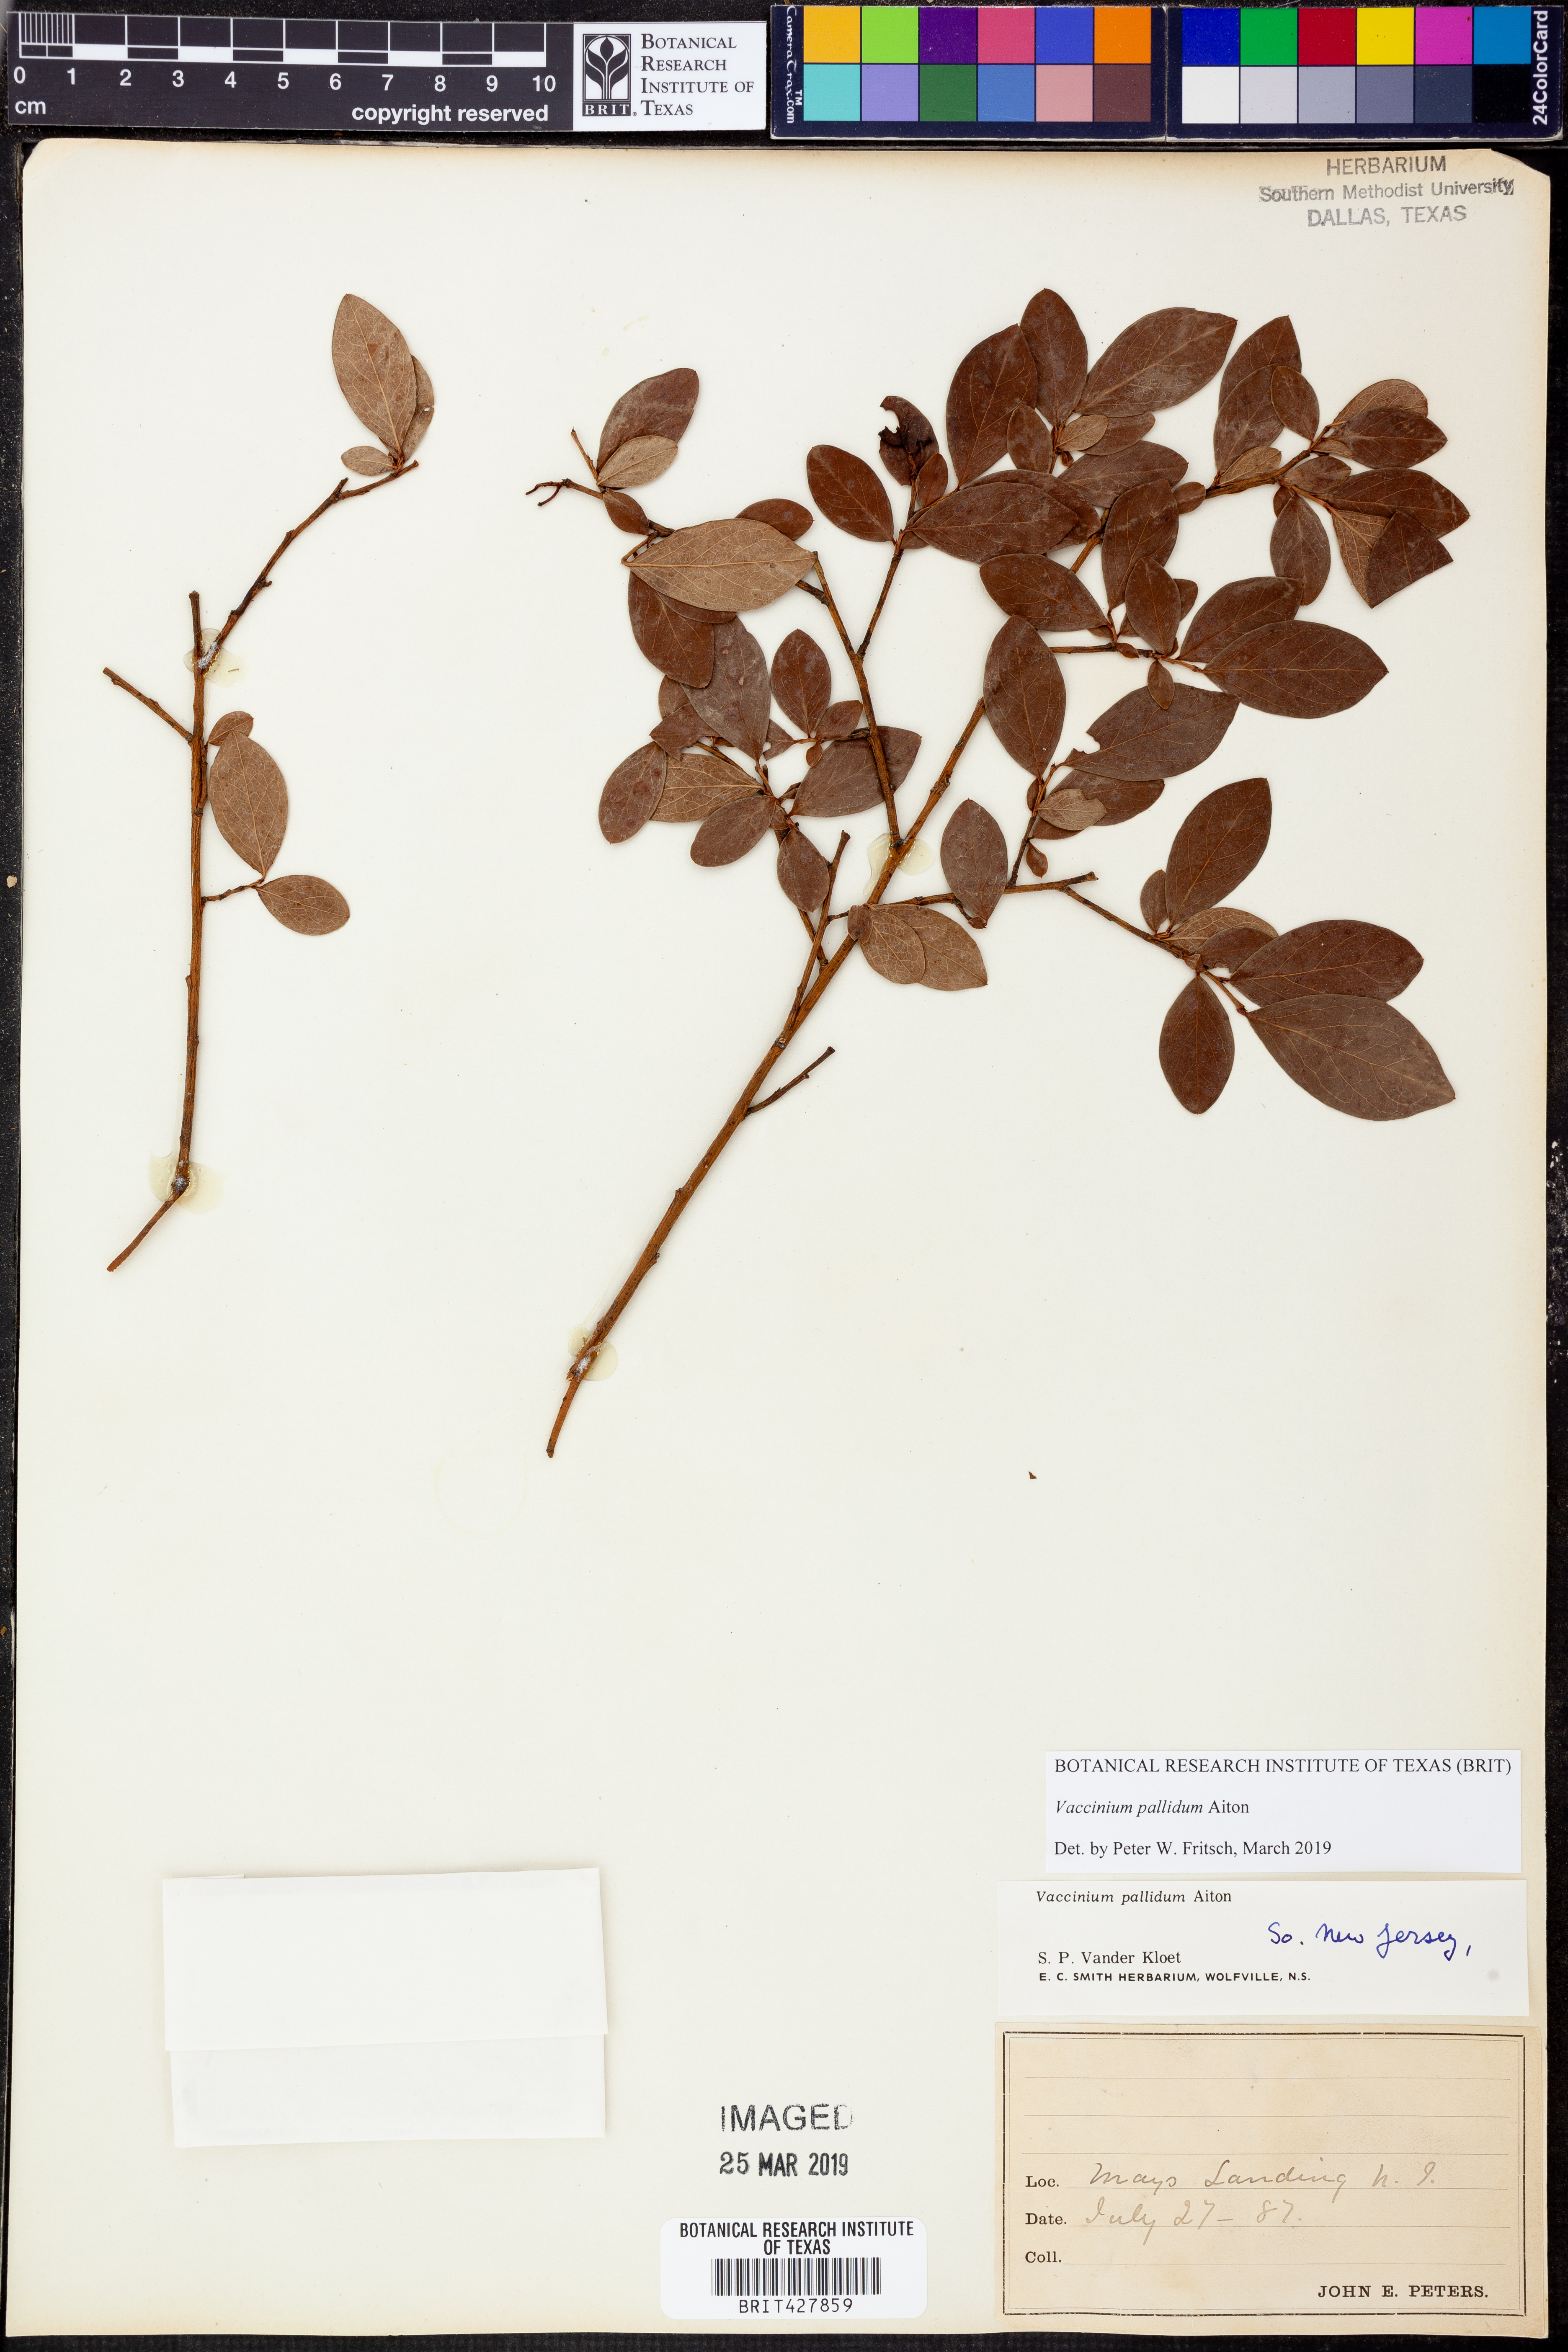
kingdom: Plantae
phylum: Tracheophyta
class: Magnoliopsida
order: Ericales
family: Ericaceae
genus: Vaccinium
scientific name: Vaccinium pallidum
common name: Blue ridge blueberry
